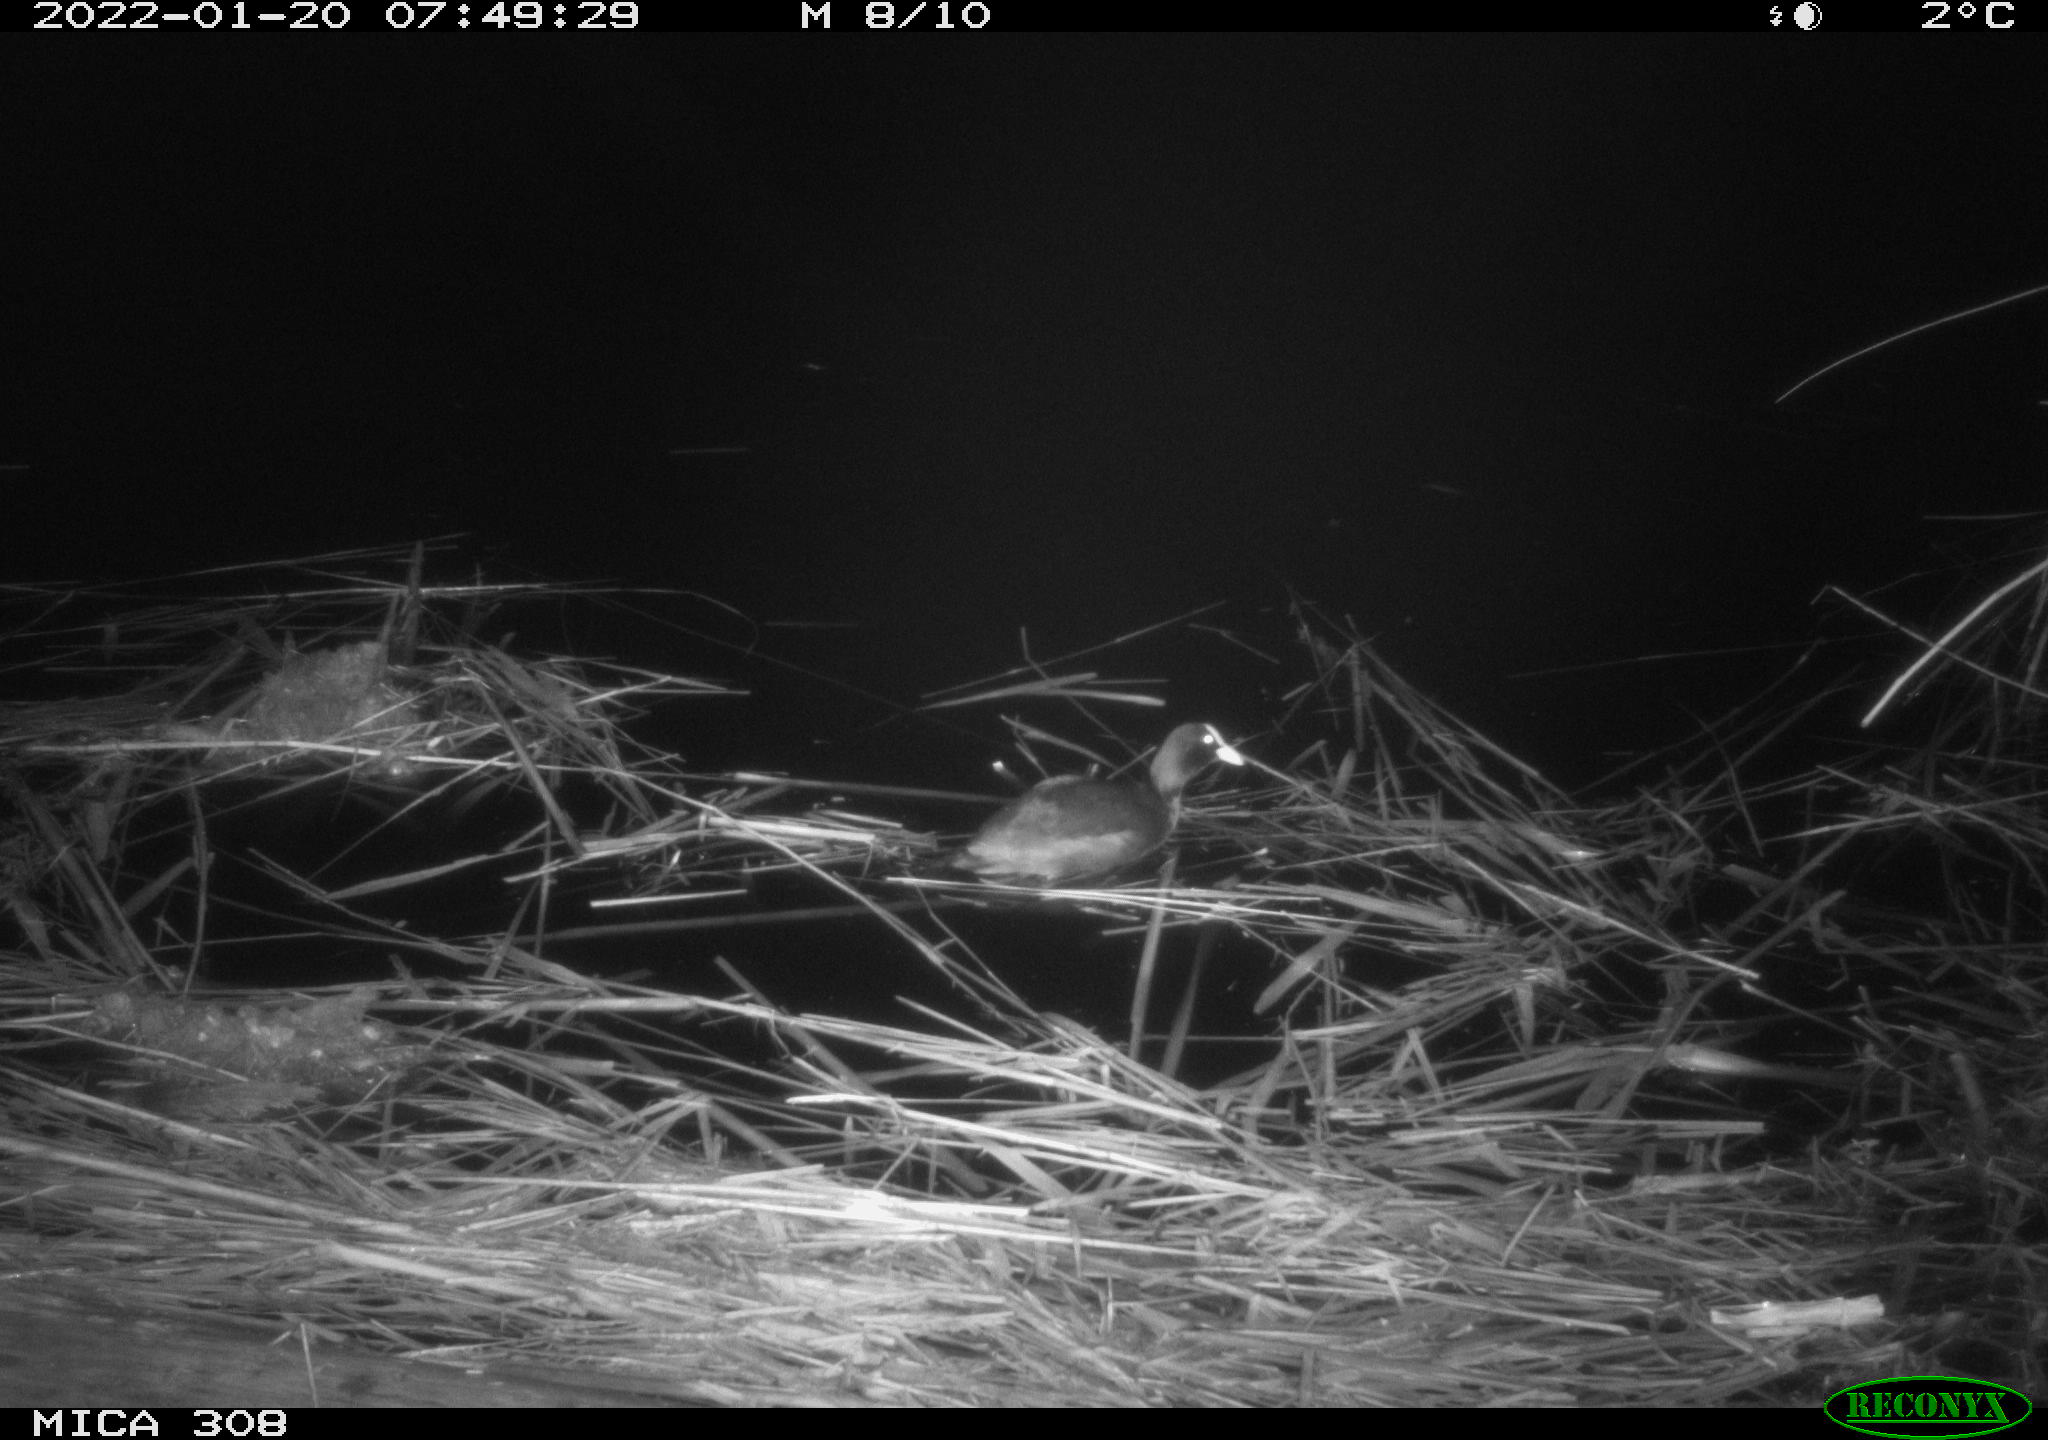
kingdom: Animalia
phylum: Chordata
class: Aves
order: Gruiformes
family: Rallidae
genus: Gallinula
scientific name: Gallinula chloropus
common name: Common moorhen
